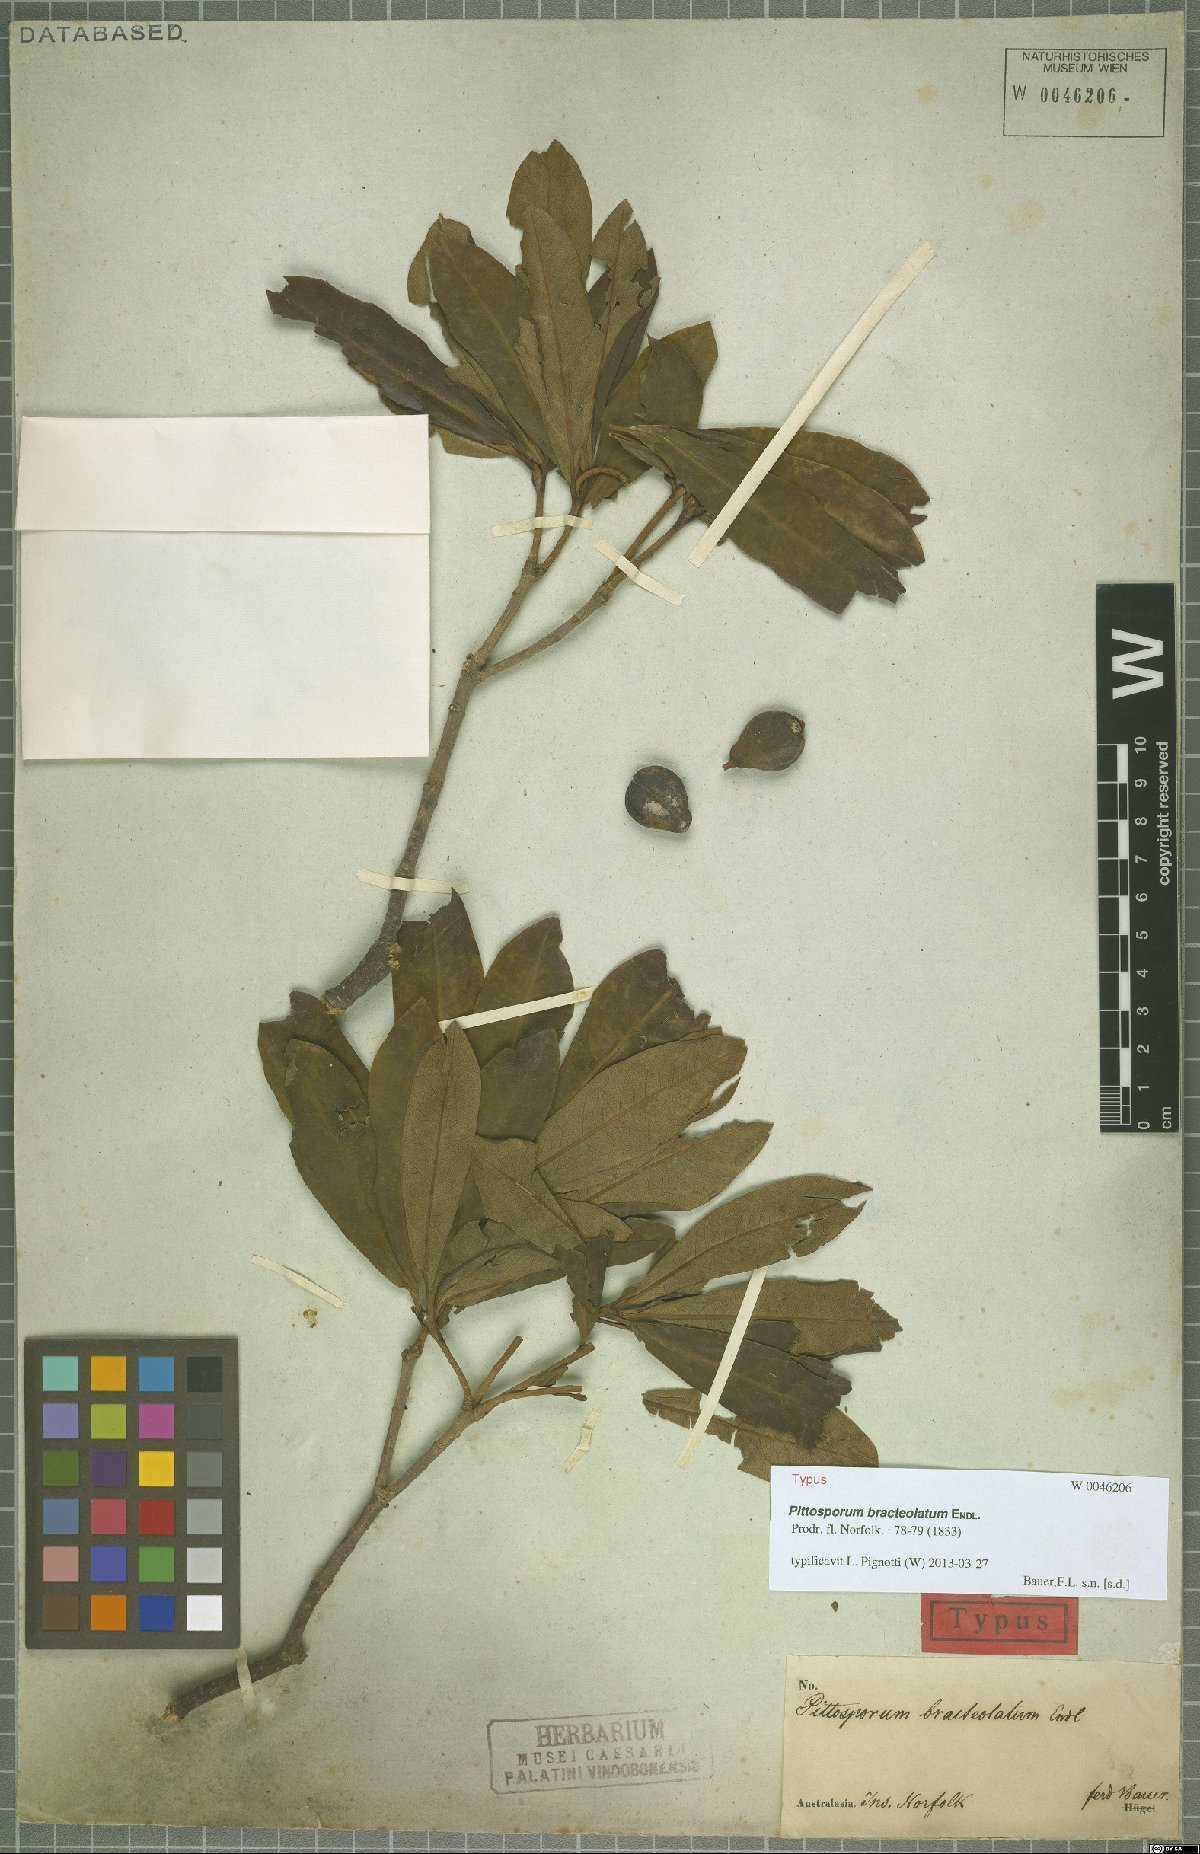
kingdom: Plantae
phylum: Tracheophyta
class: Magnoliopsida
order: Apiales
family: Pittosporaceae
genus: Pittosporum
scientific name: Pittosporum bracteolatum
